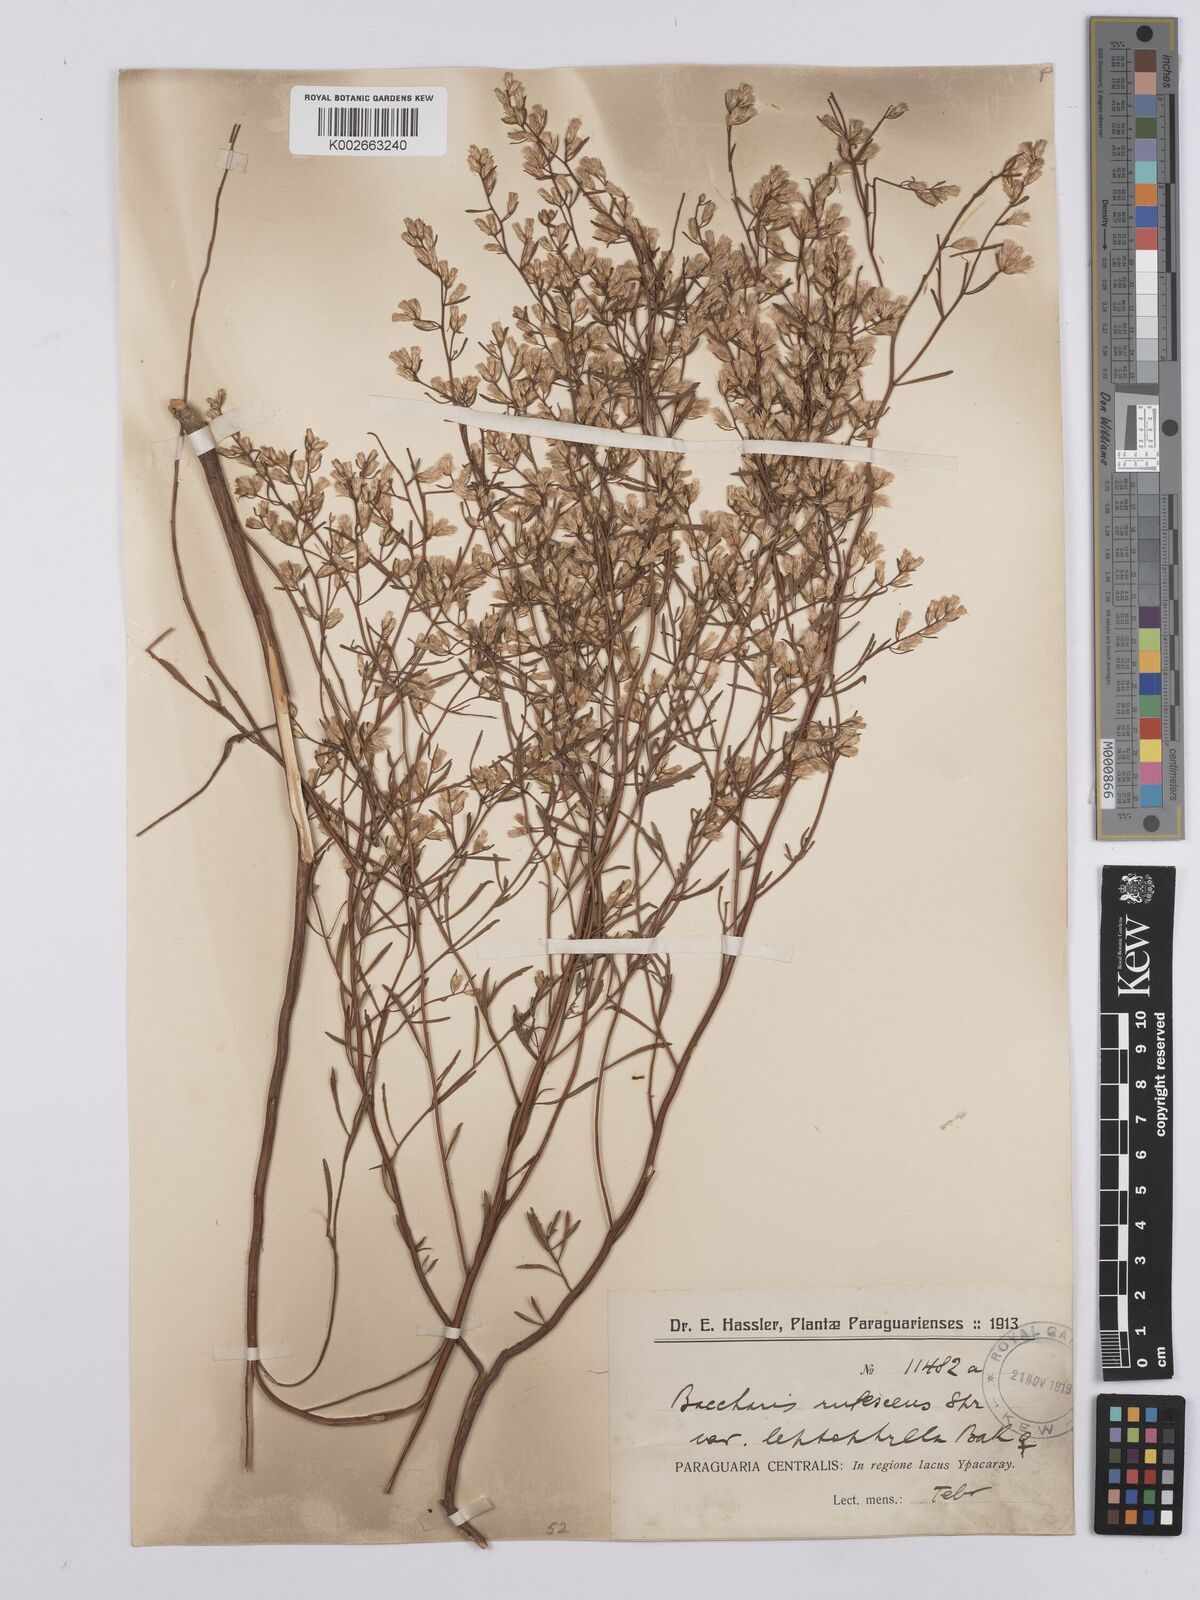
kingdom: Plantae
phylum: Tracheophyta
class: Magnoliopsida
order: Asterales
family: Asteraceae
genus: Baccharis
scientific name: Baccharis leptophylla
